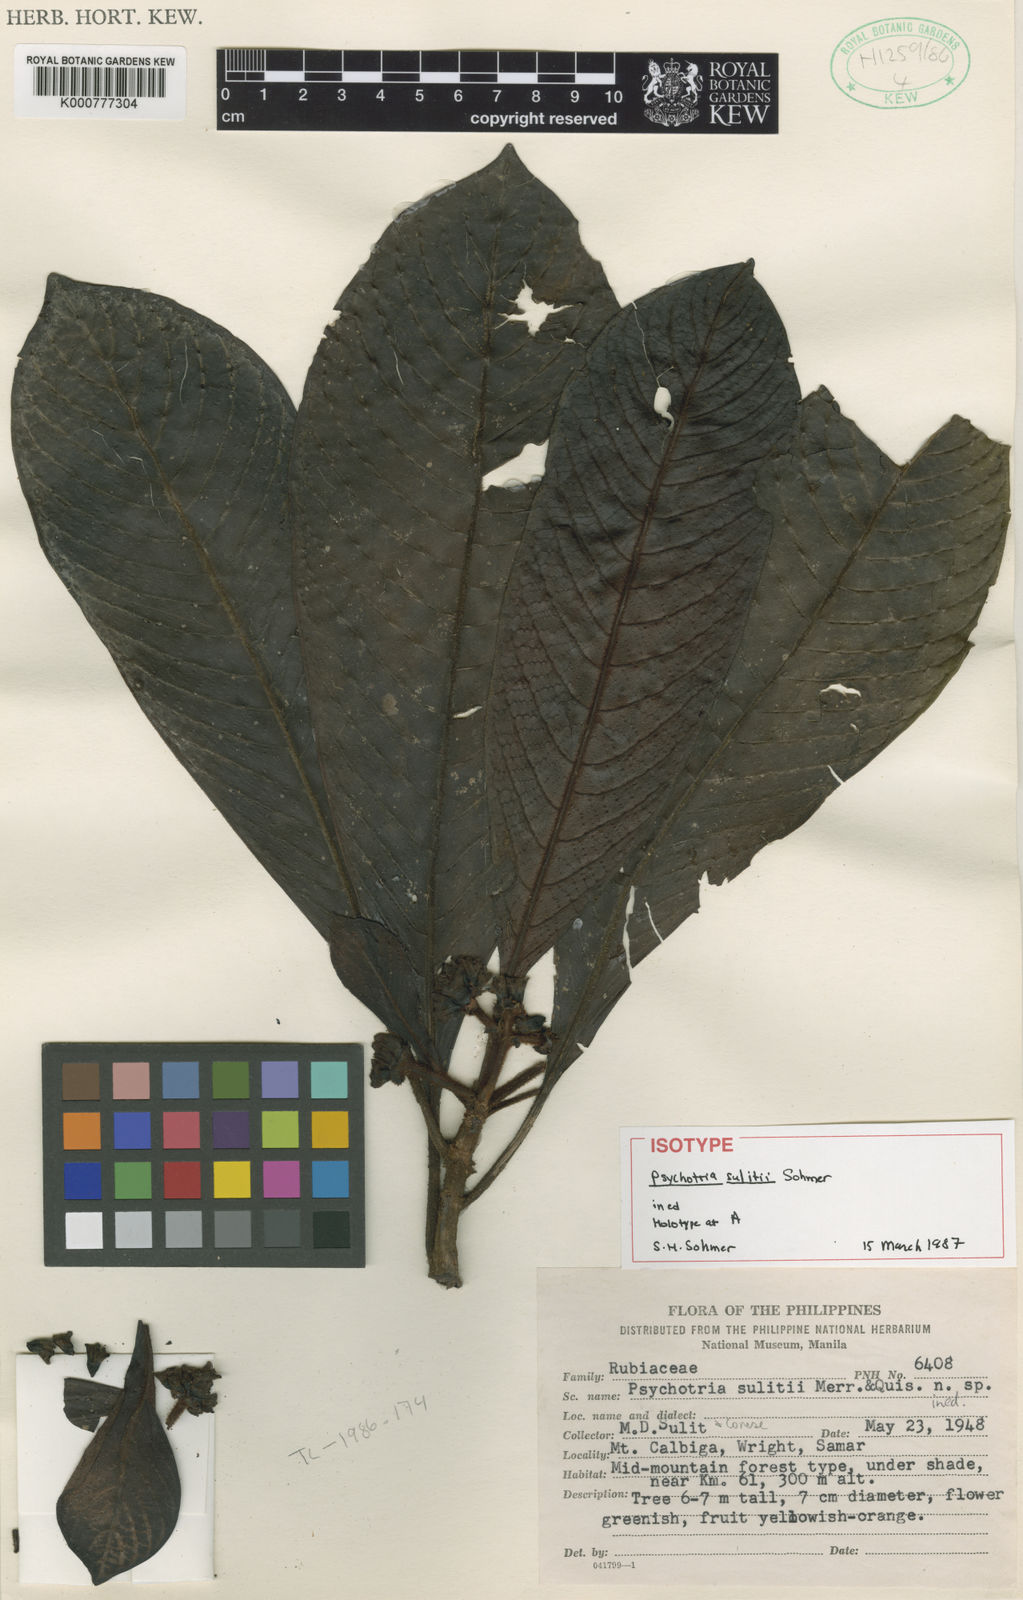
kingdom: Plantae
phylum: Tracheophyta
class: Magnoliopsida
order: Gentianales
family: Rubiaceae
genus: Psychotria
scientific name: Psychotria sulitii
